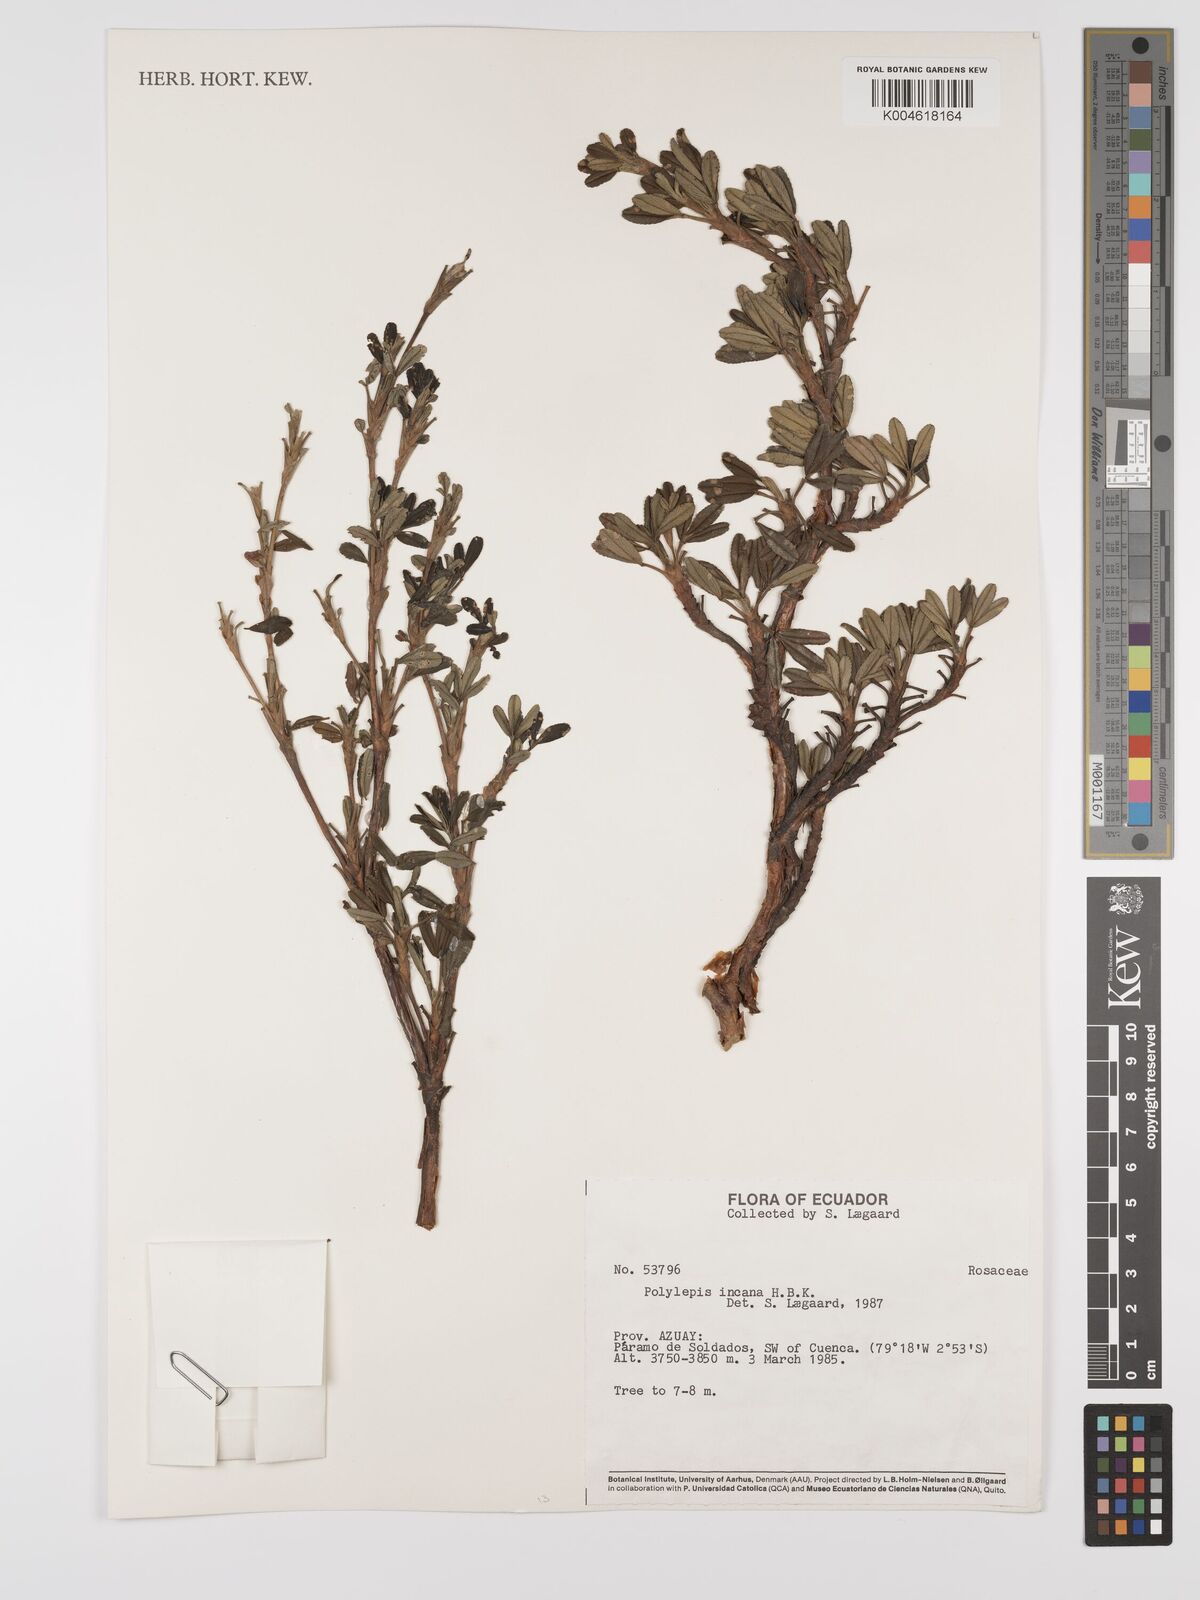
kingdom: Plantae
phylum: Tracheophyta
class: Magnoliopsida
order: Rosales
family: Rosaceae
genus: Polylepis
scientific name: Polylepis incana
